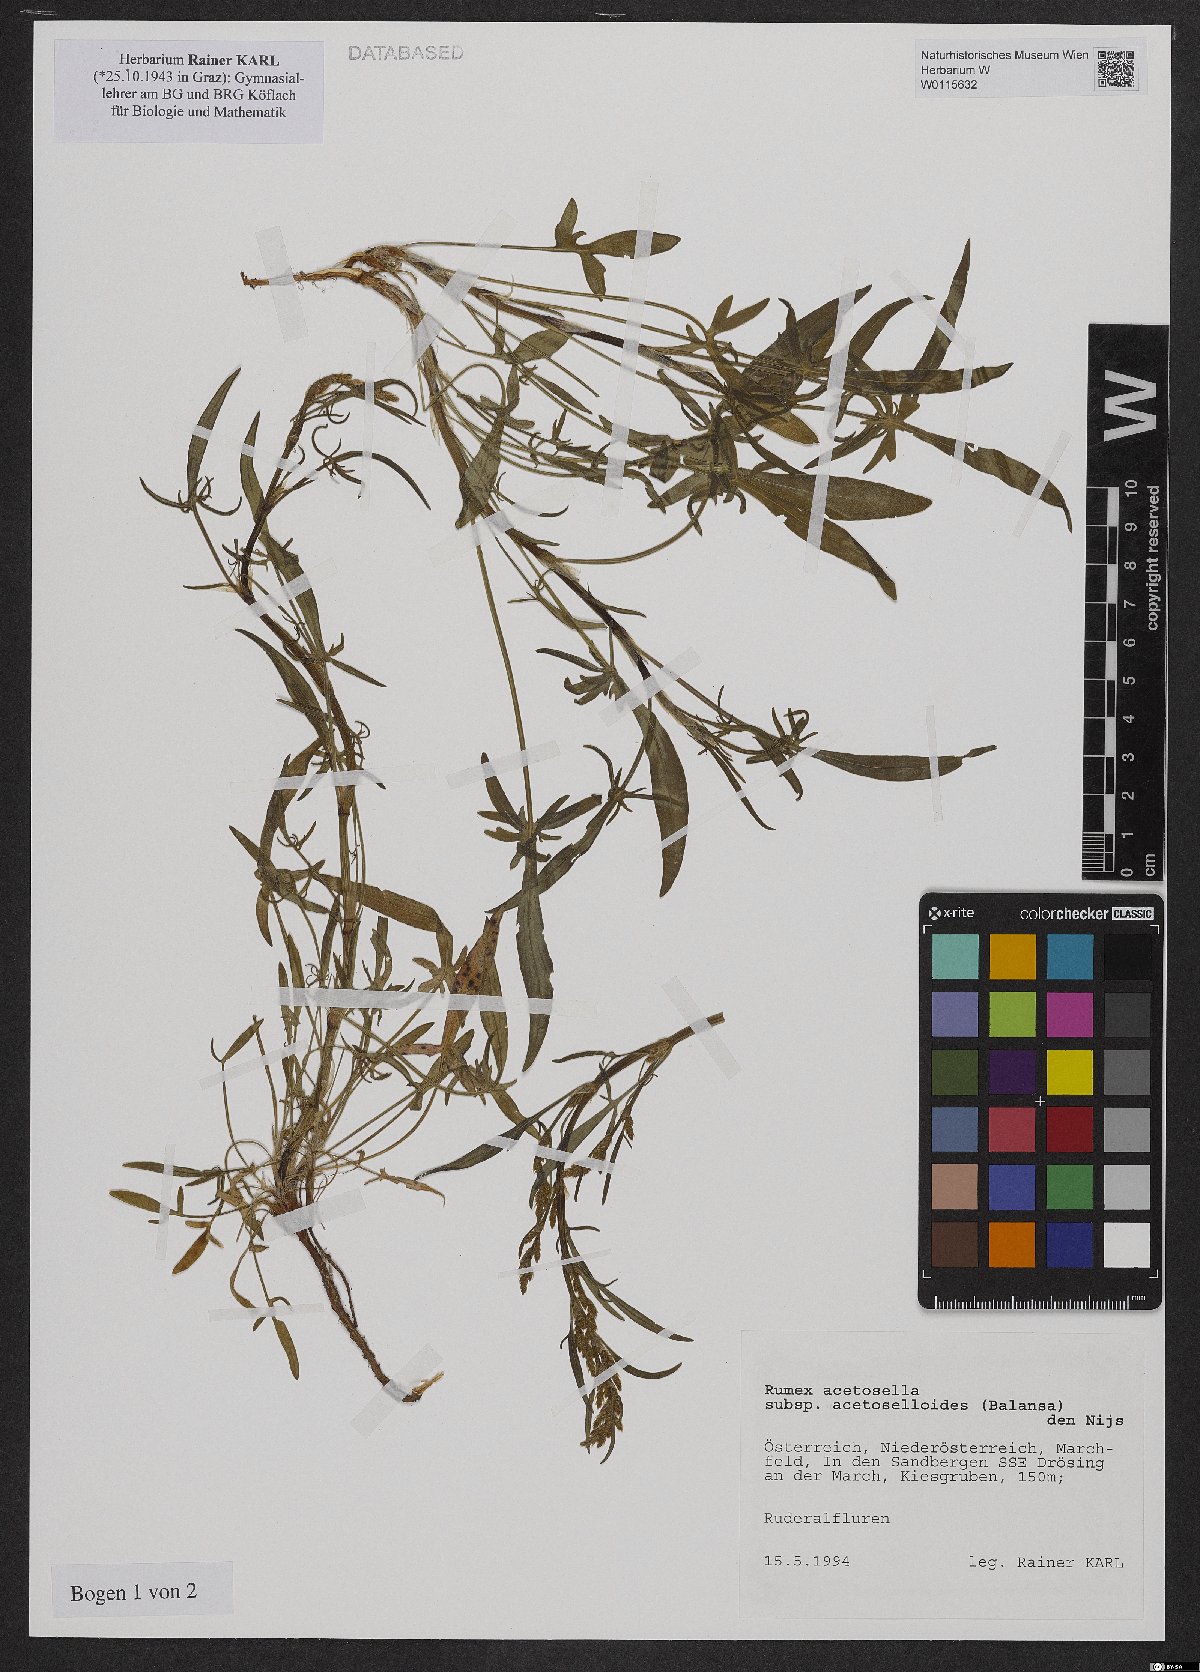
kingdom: Plantae
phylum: Tracheophyta
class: Magnoliopsida
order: Caryophyllales
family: Polygonaceae
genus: Rumex
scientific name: Rumex acetosella
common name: Common sheep sorrel
